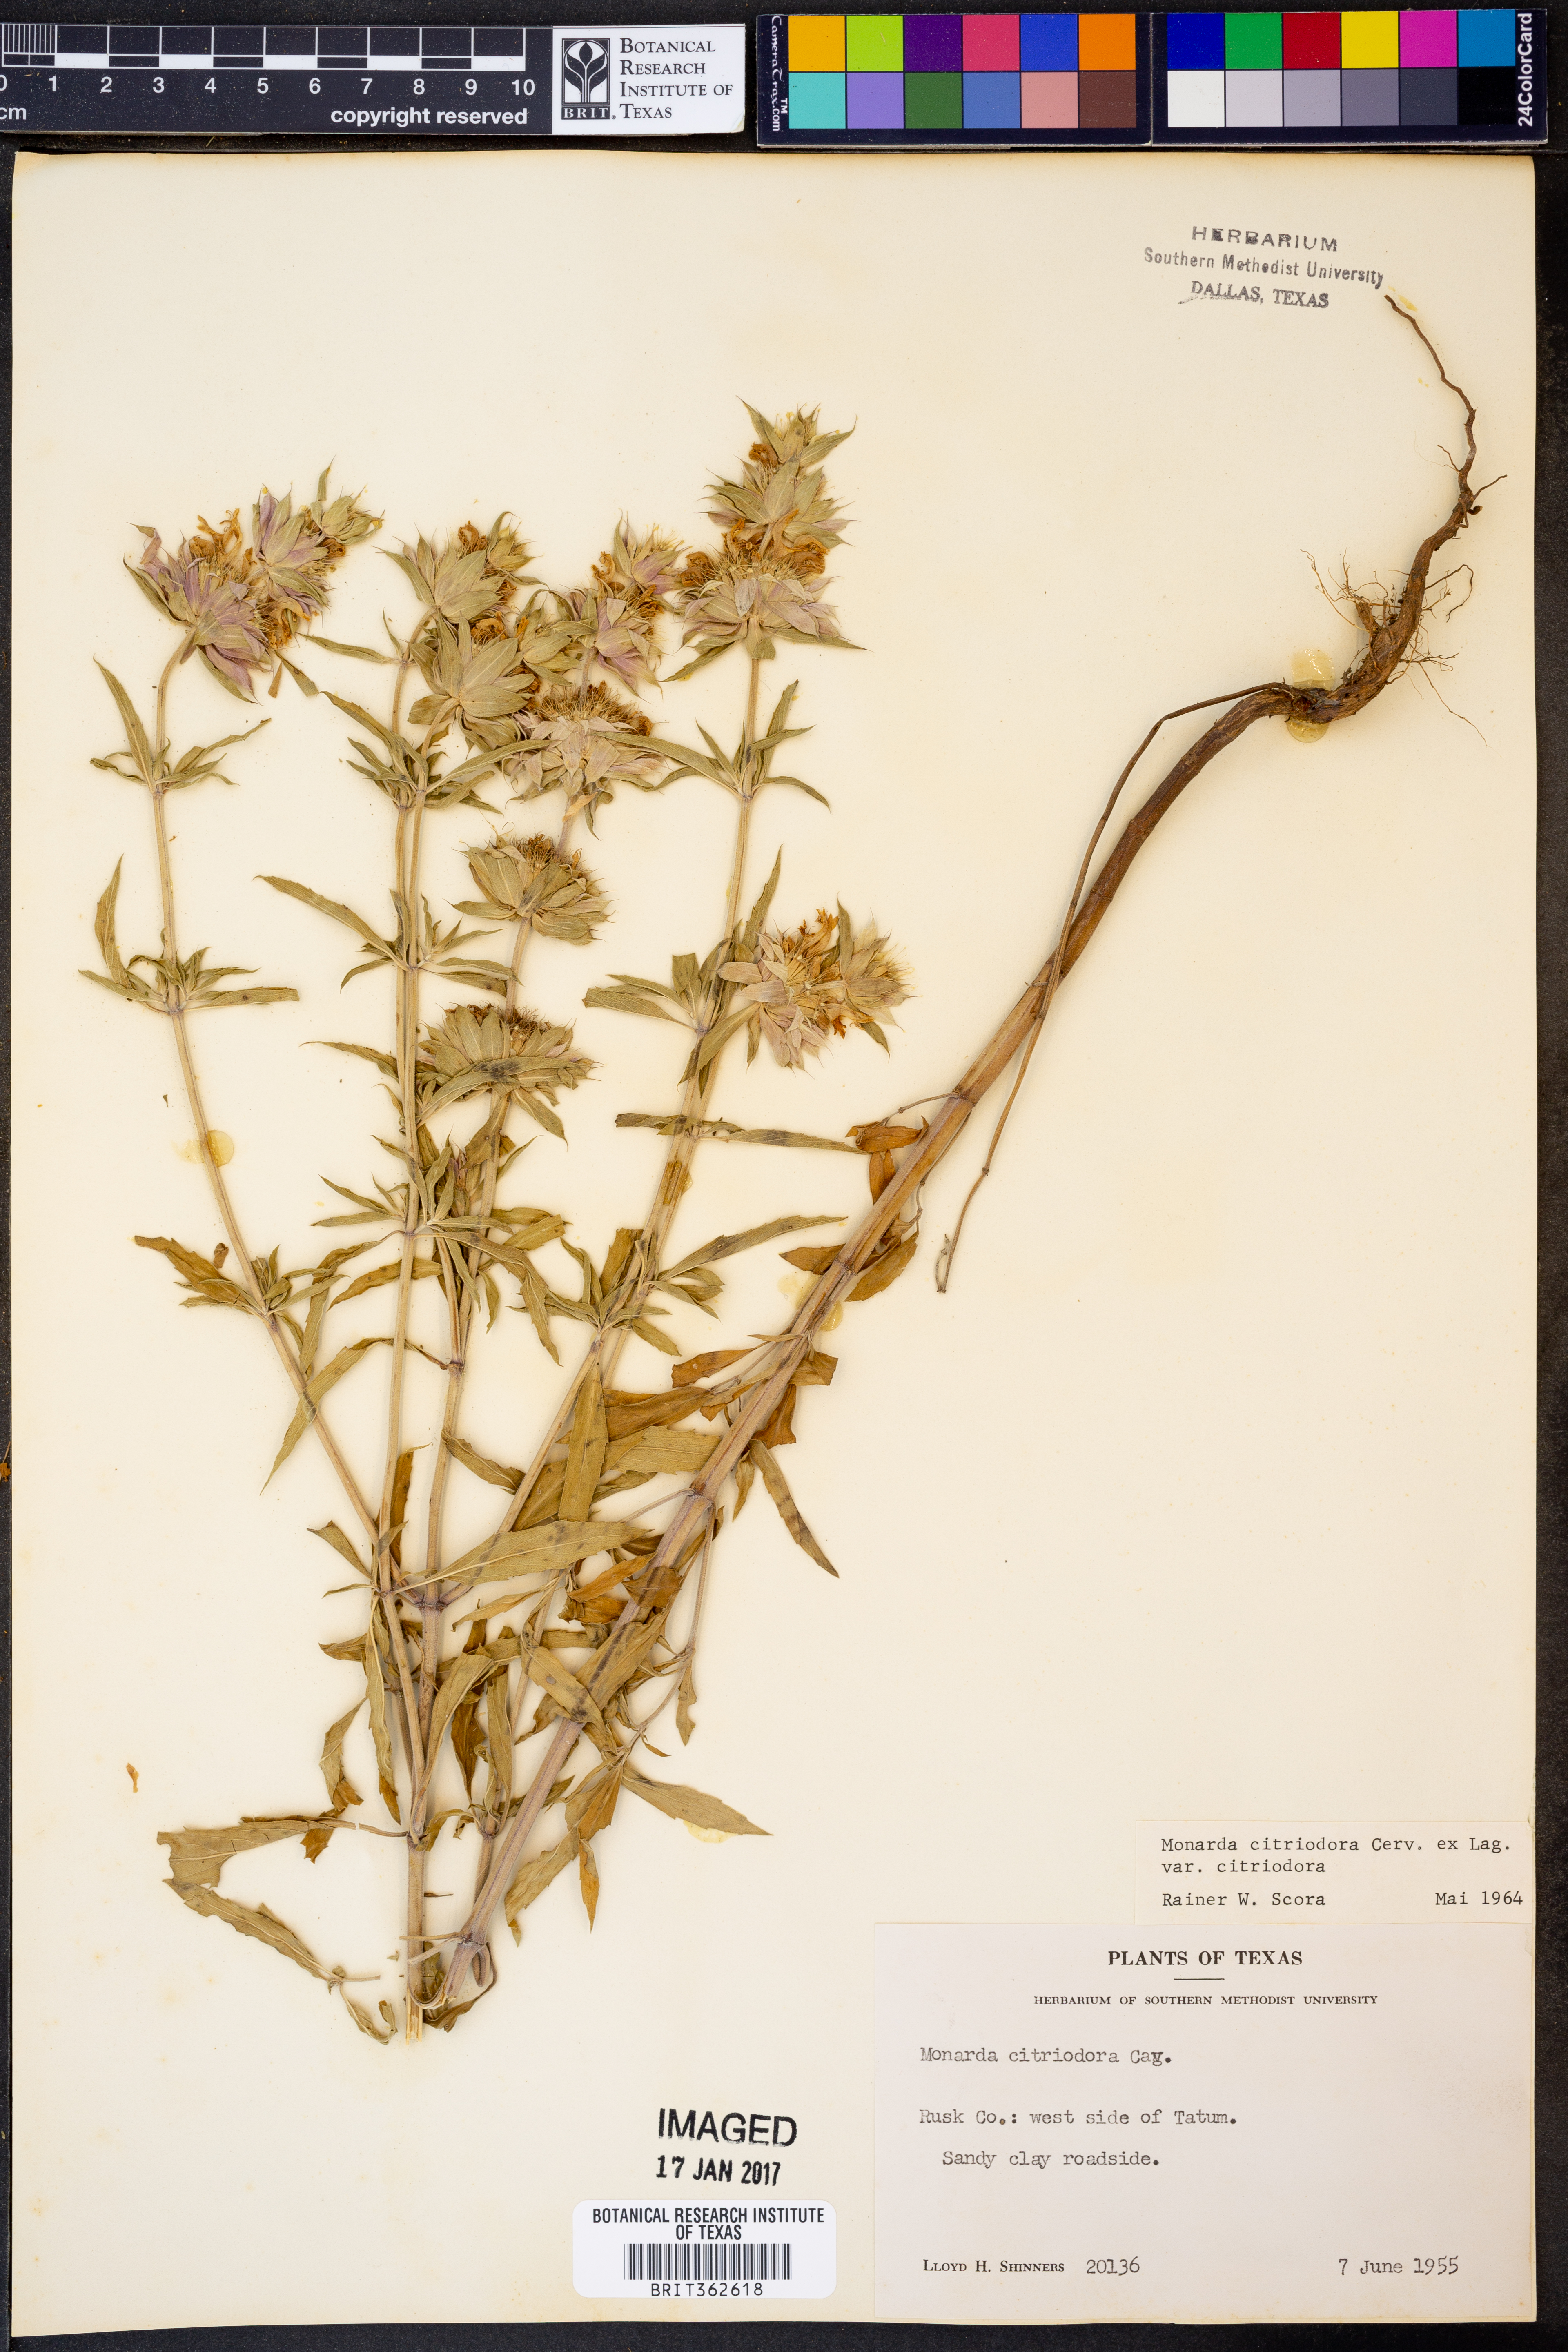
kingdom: Plantae
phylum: Tracheophyta
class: Magnoliopsida
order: Lamiales
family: Lamiaceae
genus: Monarda
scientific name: Monarda citriodora
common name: Lemon beebalm
